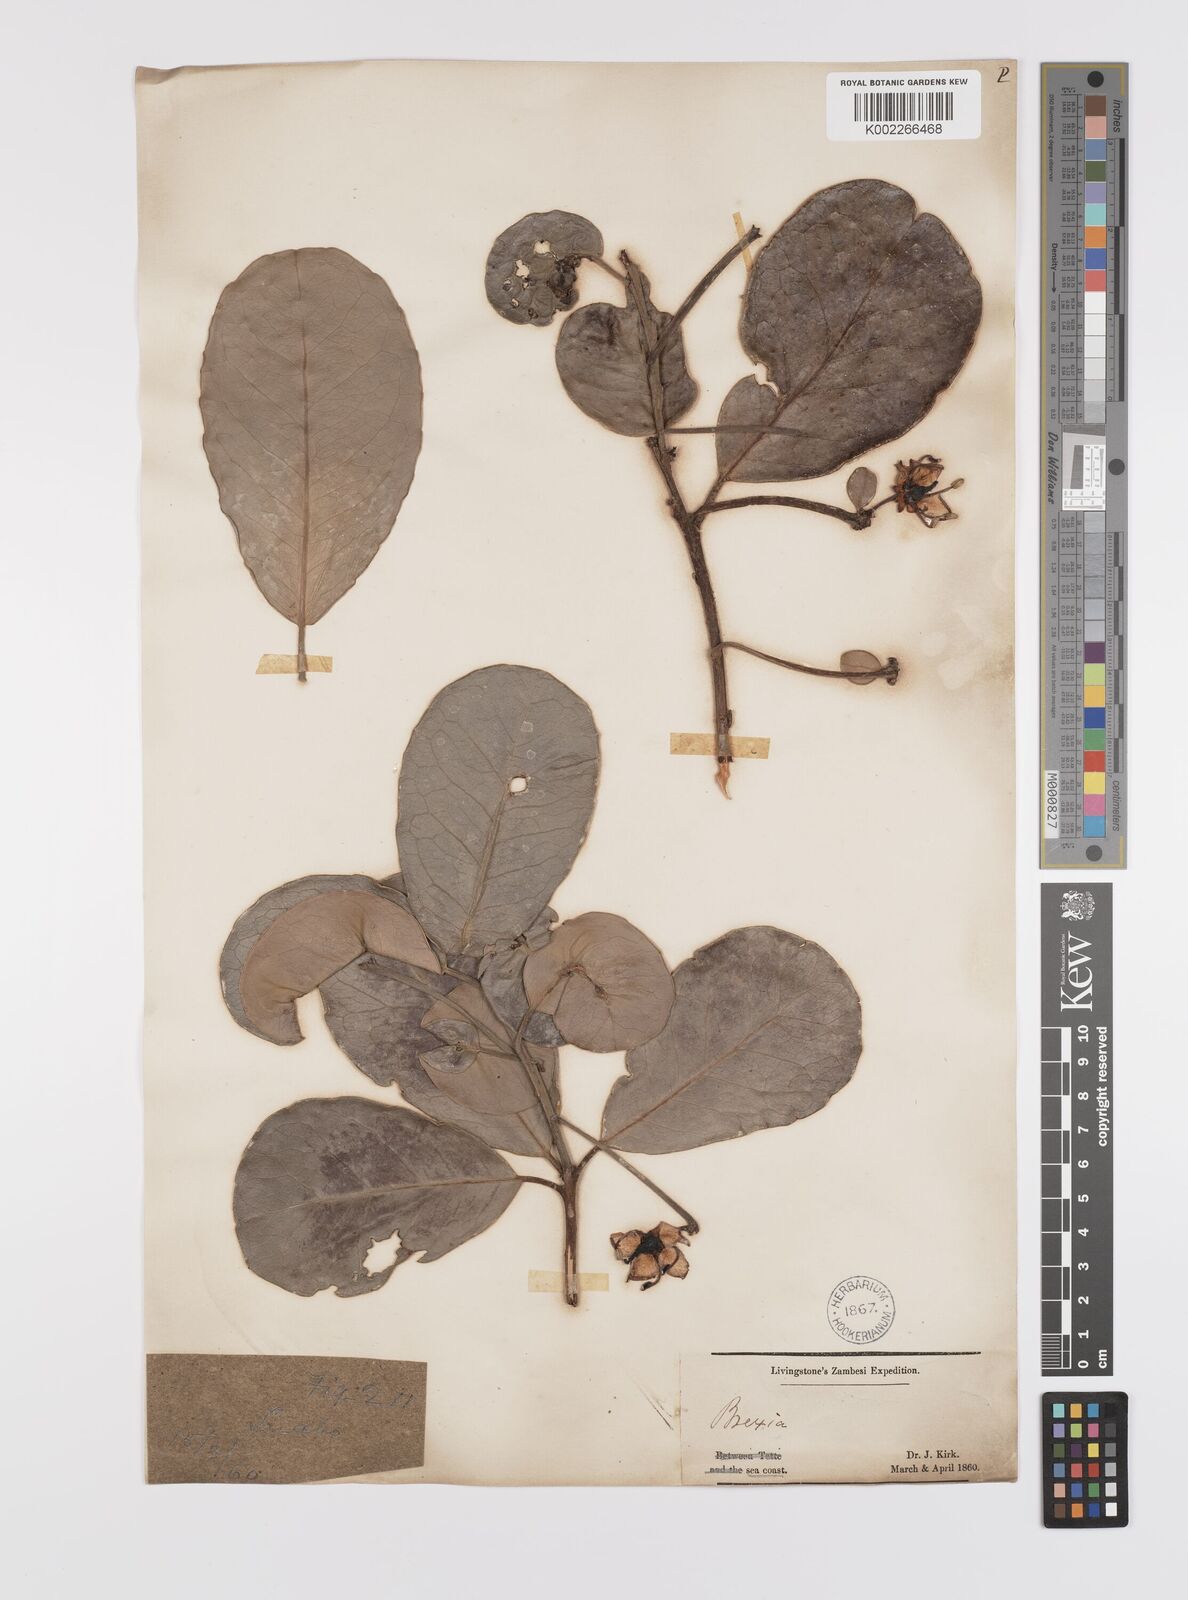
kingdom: Plantae
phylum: Tracheophyta
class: Magnoliopsida
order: Celastrales
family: Celastraceae
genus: Brexia
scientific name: Brexia madagascariensis
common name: Brexia
